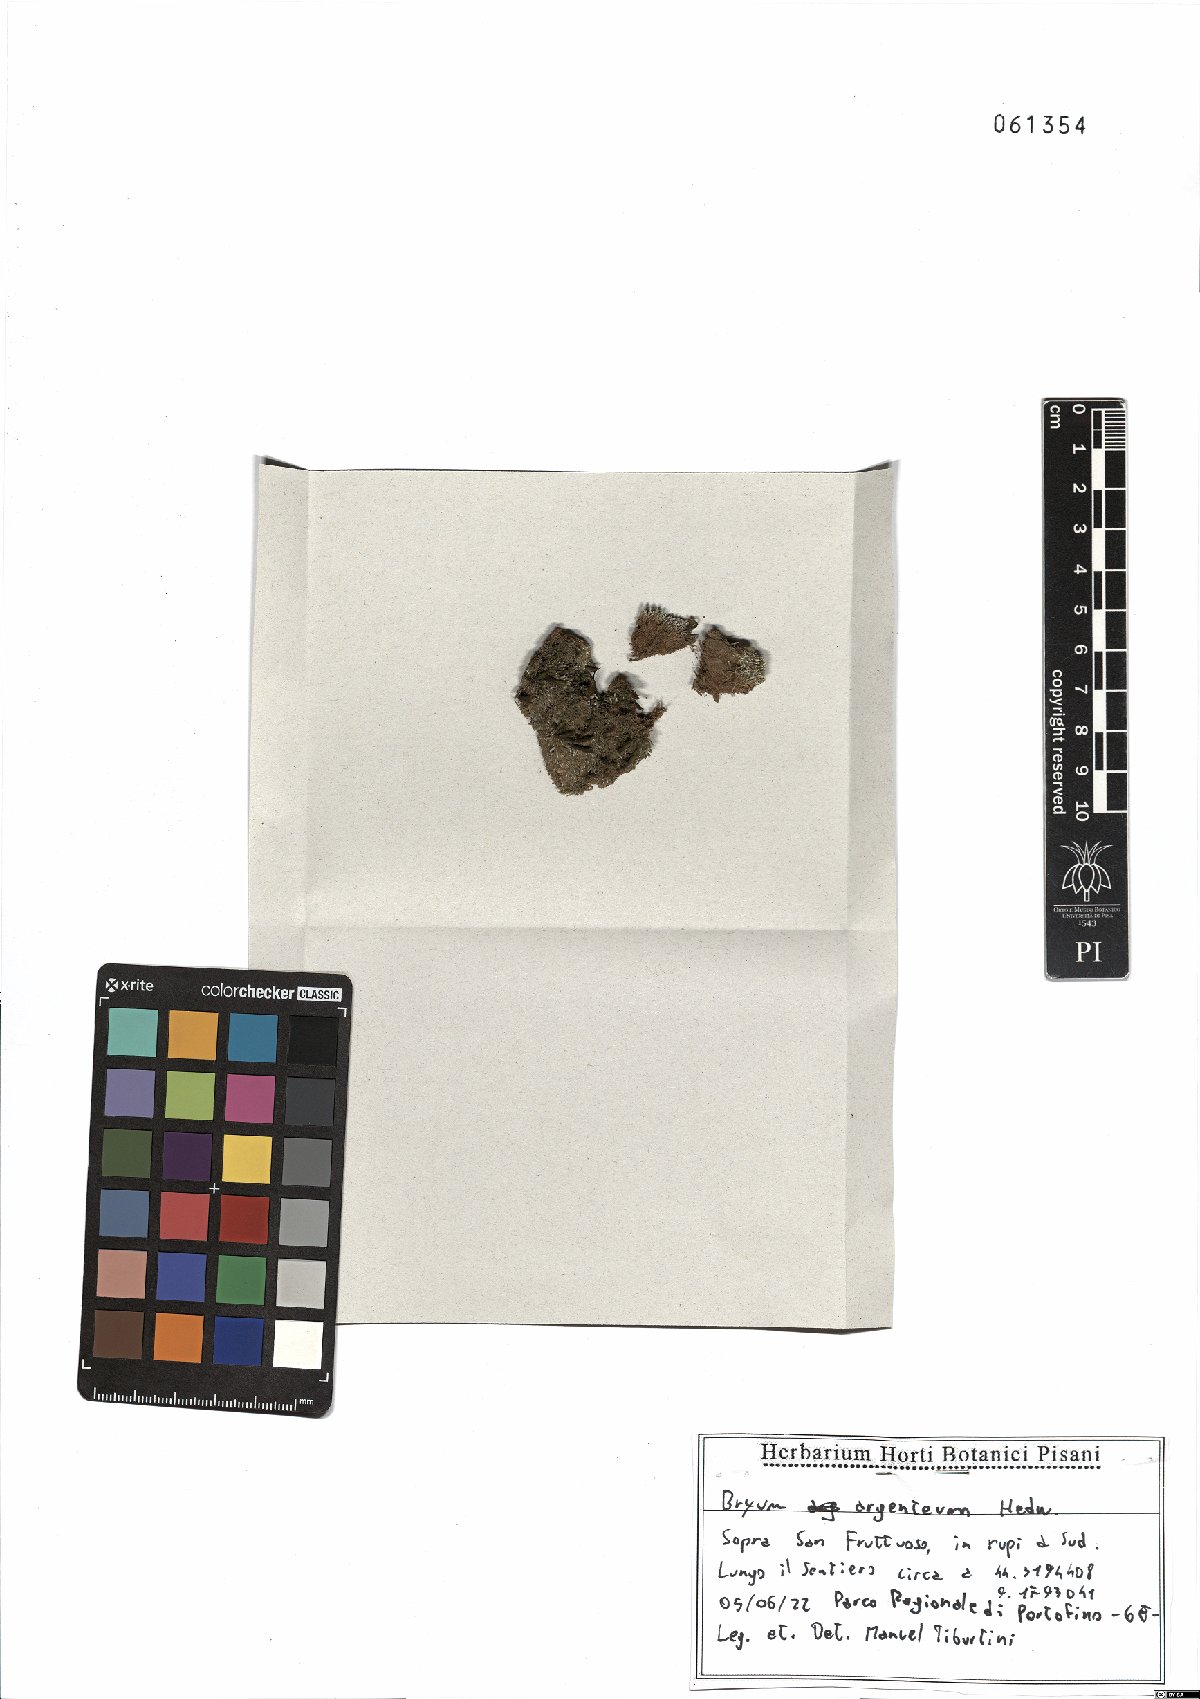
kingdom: Plantae
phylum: Bryophyta
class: Bryopsida
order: Bryales
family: Bryaceae
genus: Bryum
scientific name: Bryum argenteum
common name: Silver-moss
